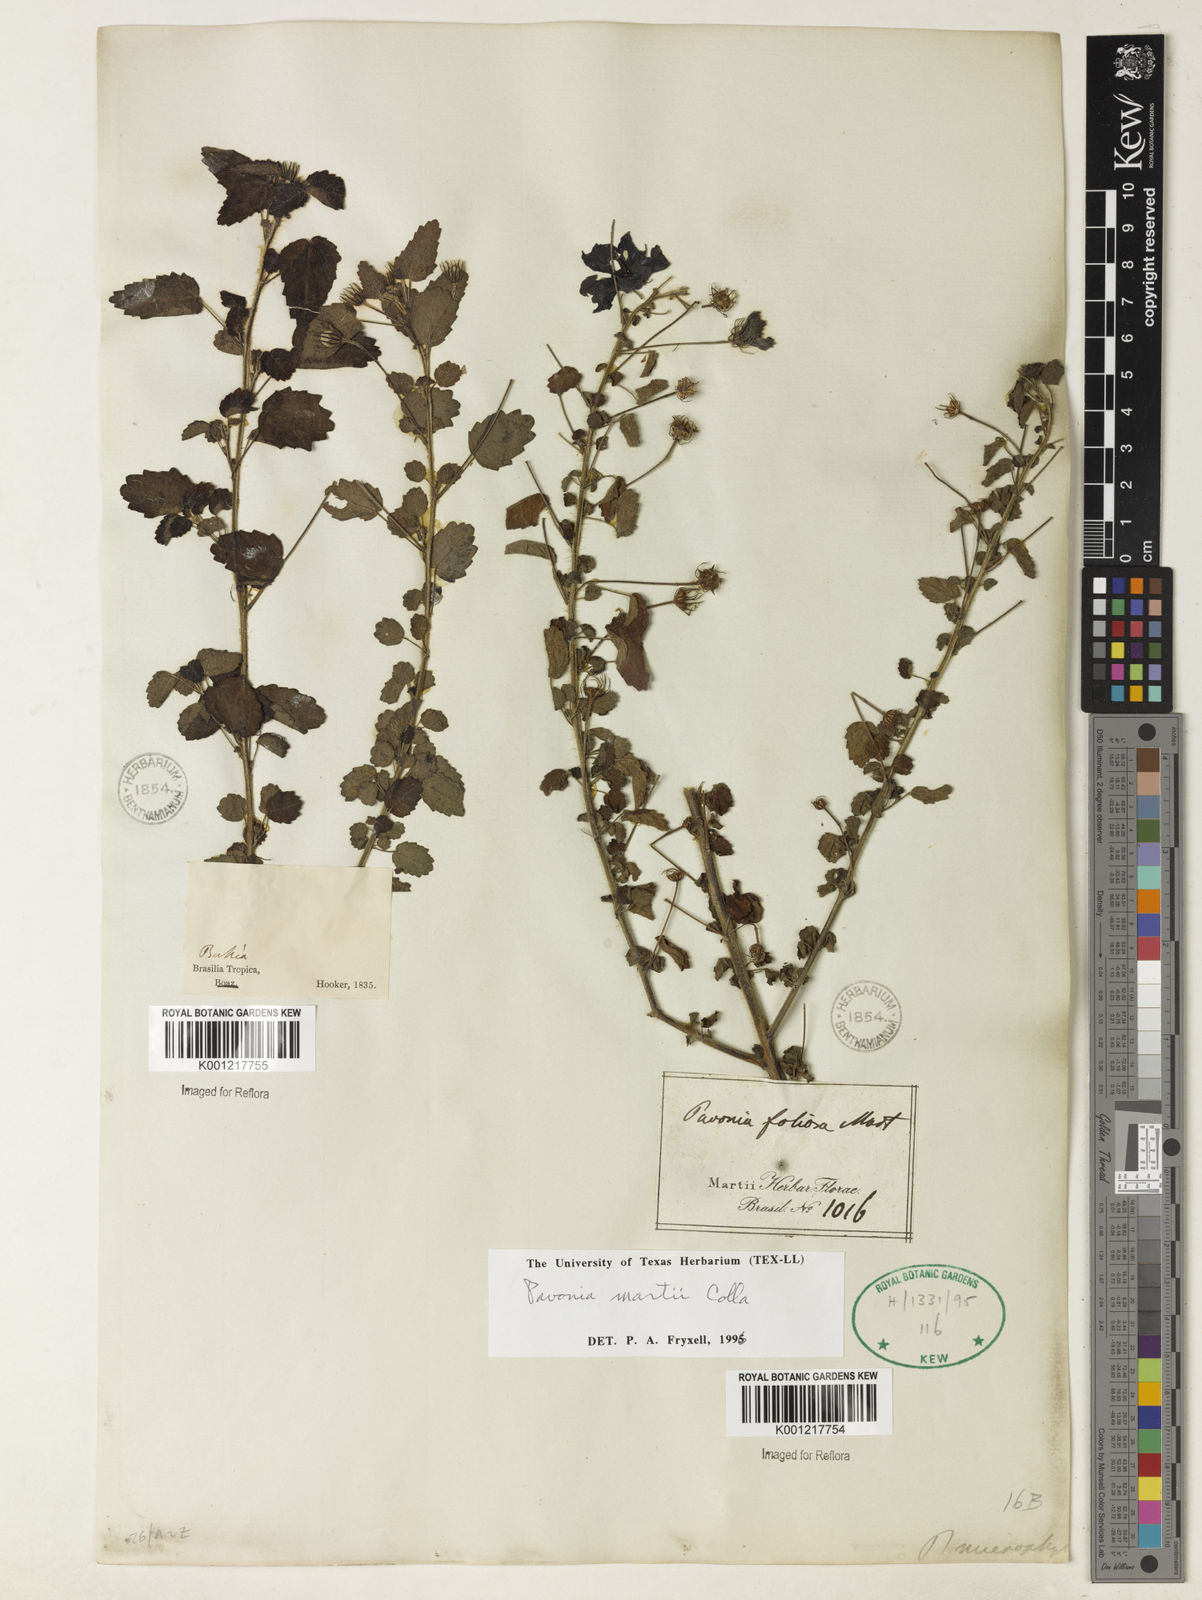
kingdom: Plantae
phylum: Tracheophyta
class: Magnoliopsida
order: Malvales
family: Malvaceae
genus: Pavonia
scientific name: Pavonia martii
